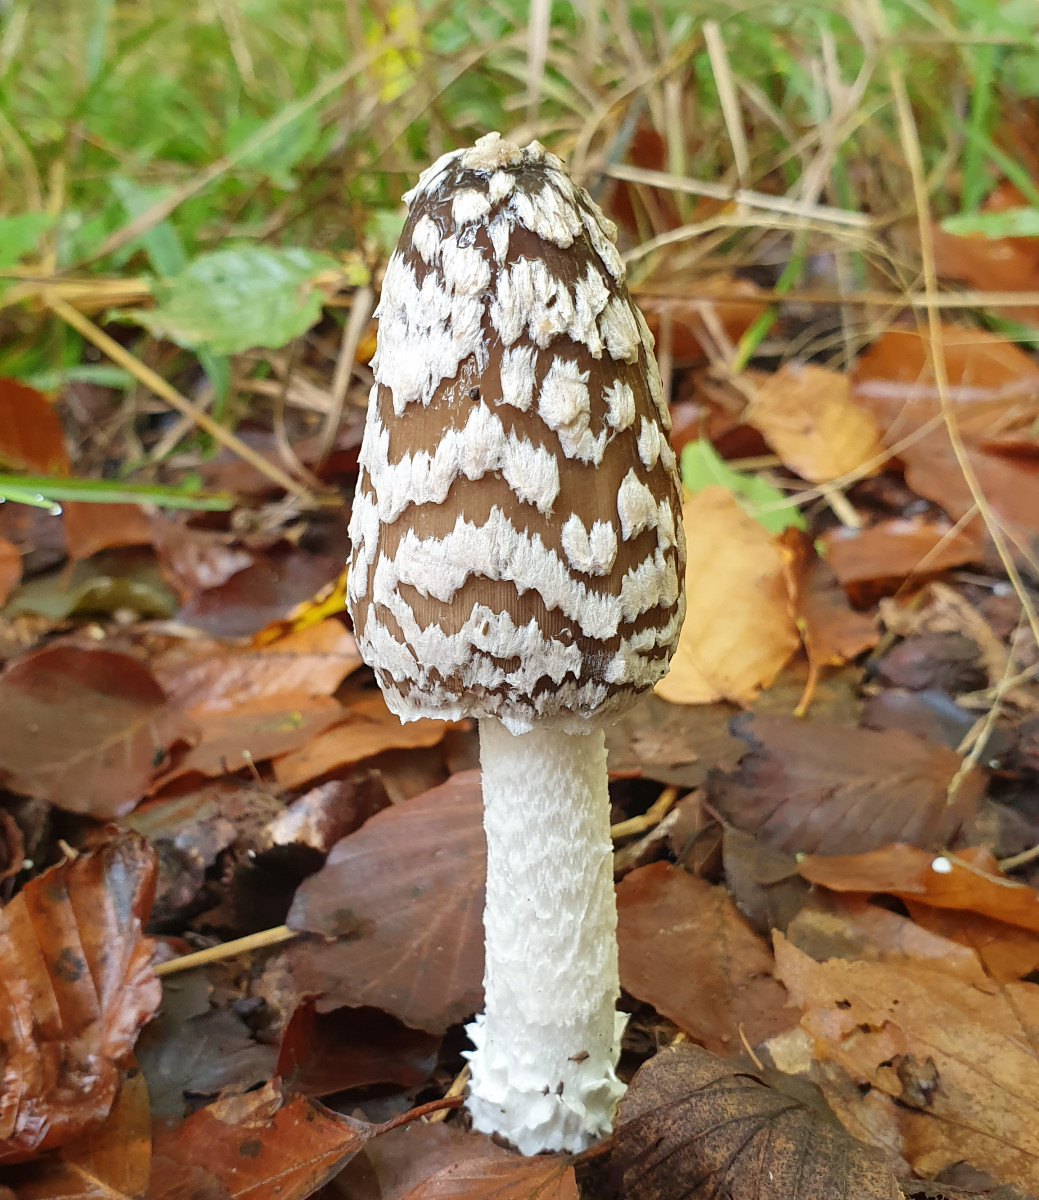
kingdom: Fungi
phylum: Basidiomycota
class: Agaricomycetes
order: Agaricales
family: Psathyrellaceae
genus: Coprinopsis
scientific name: Coprinopsis picacea
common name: skade-blækhat
